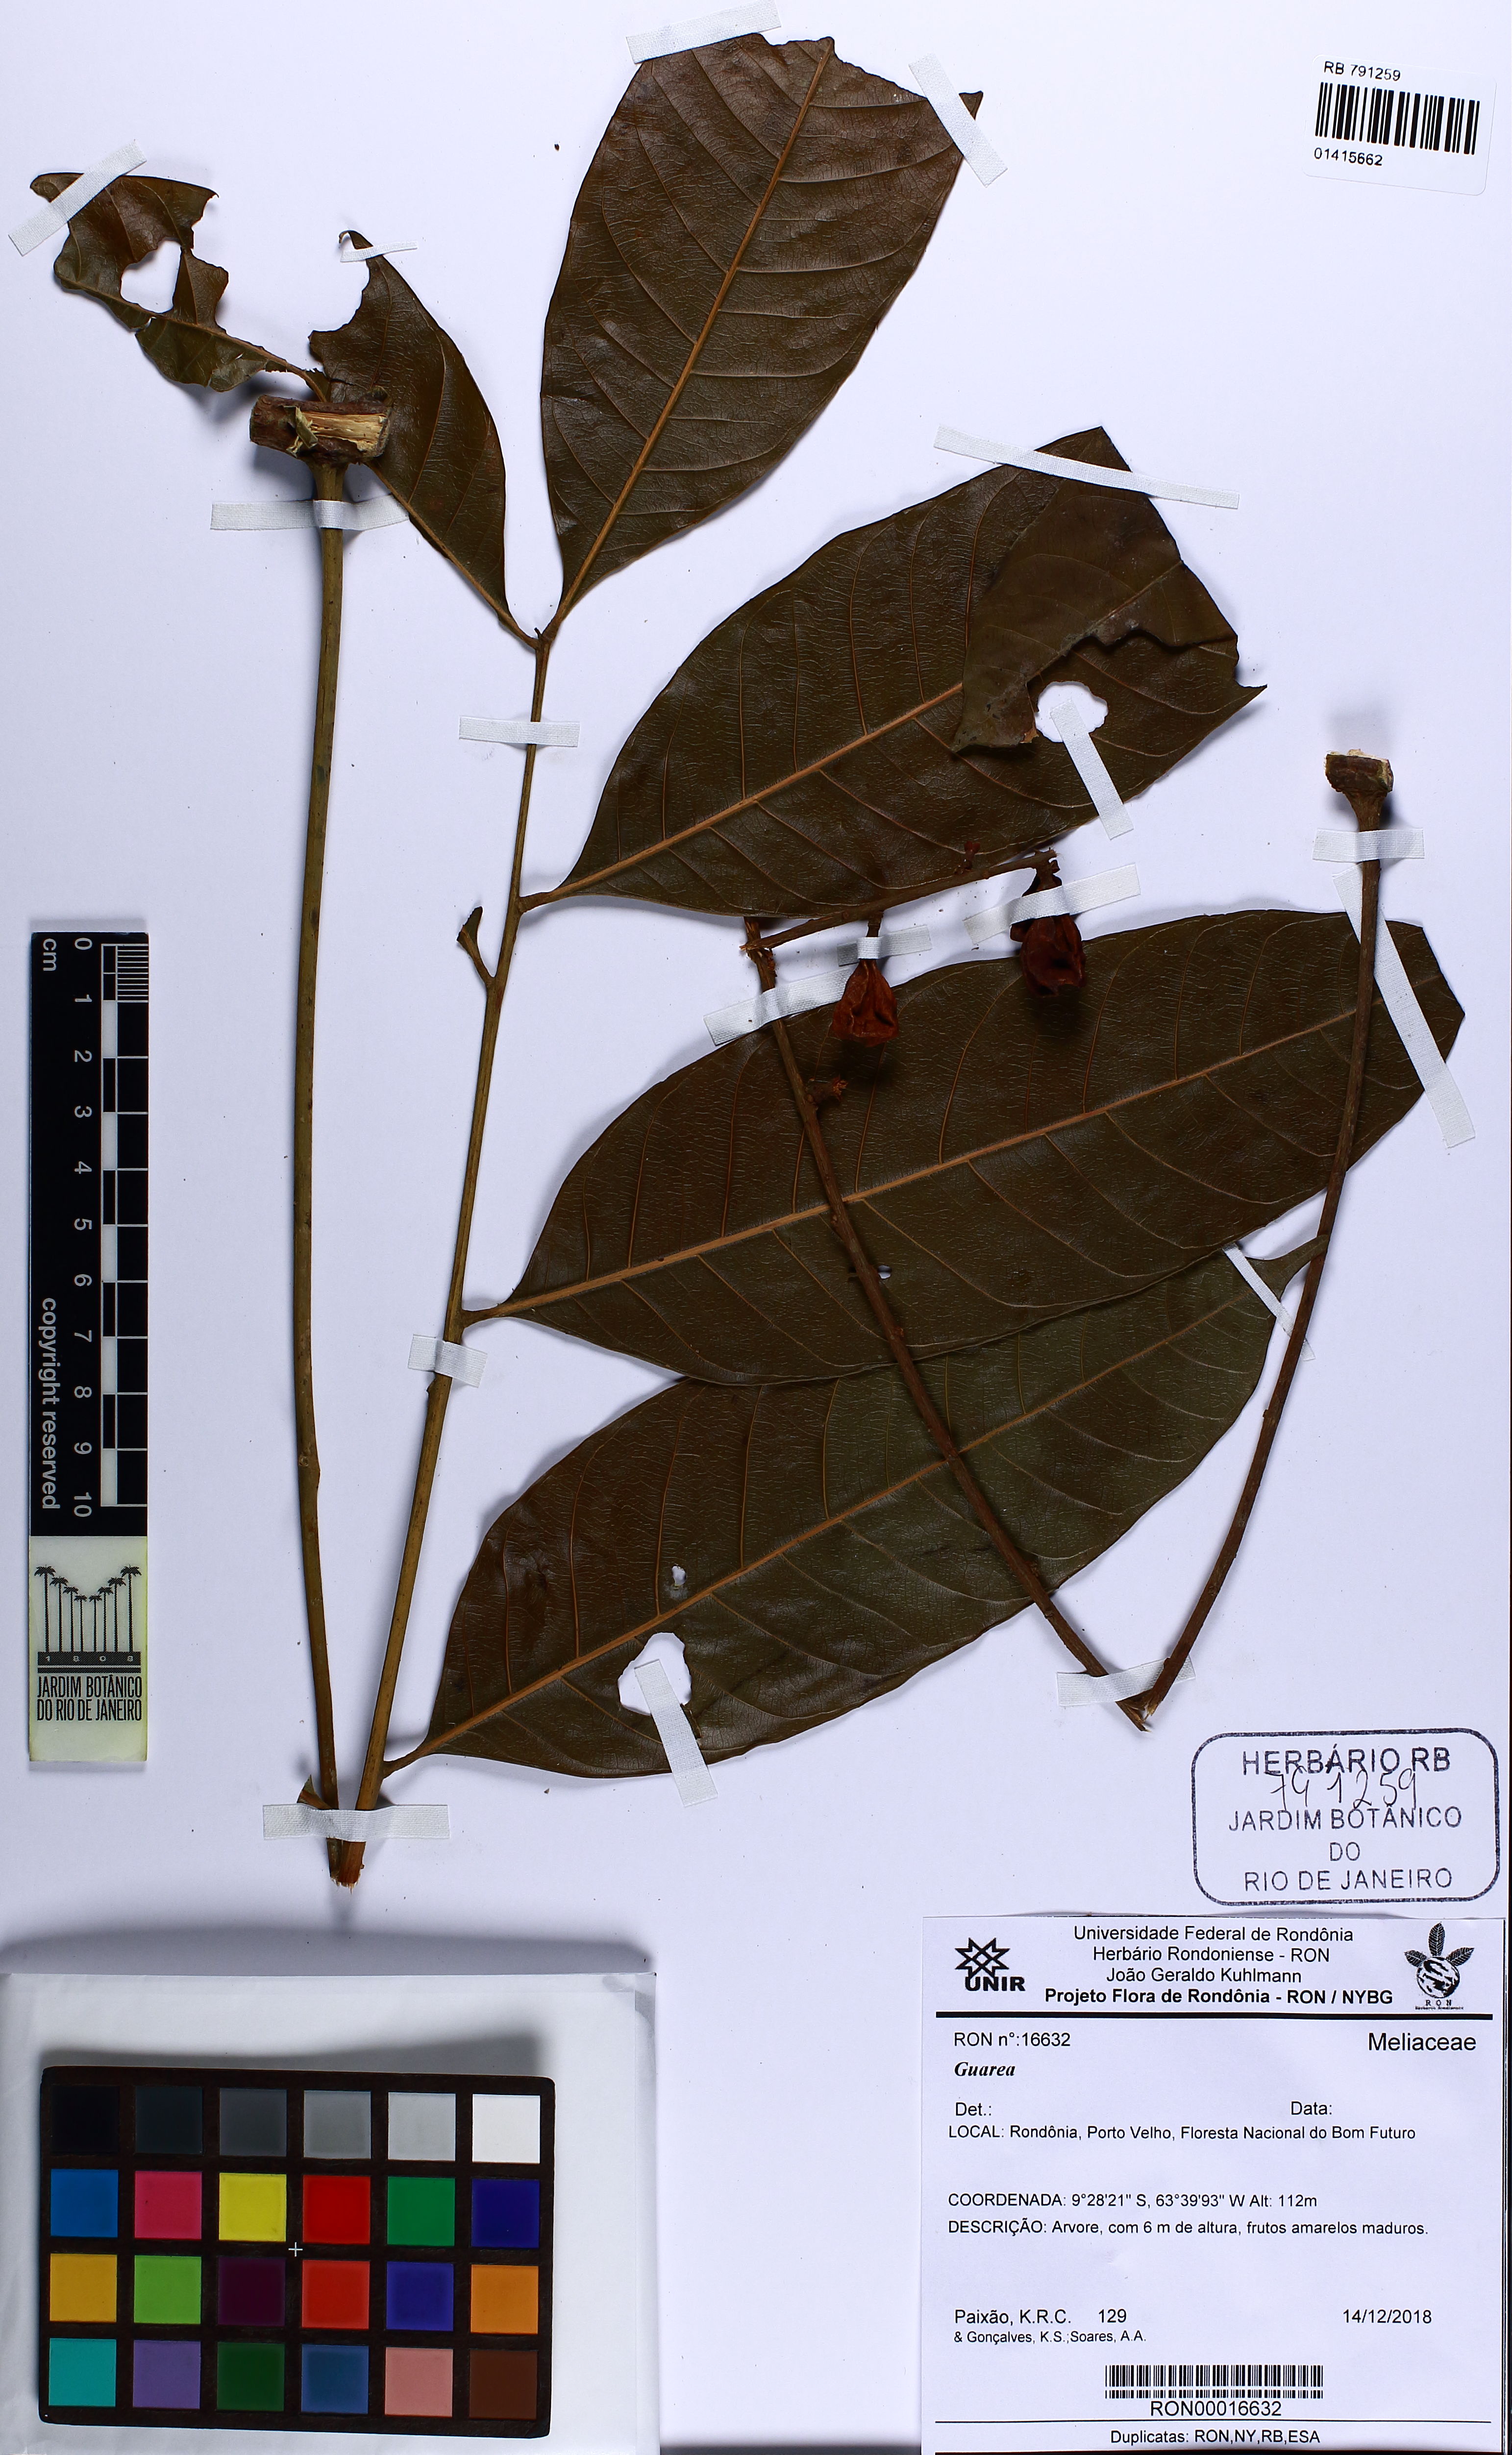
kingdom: Plantae
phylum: Tracheophyta
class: Magnoliopsida
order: Sapindales
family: Meliaceae
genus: Guarea
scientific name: Guarea
